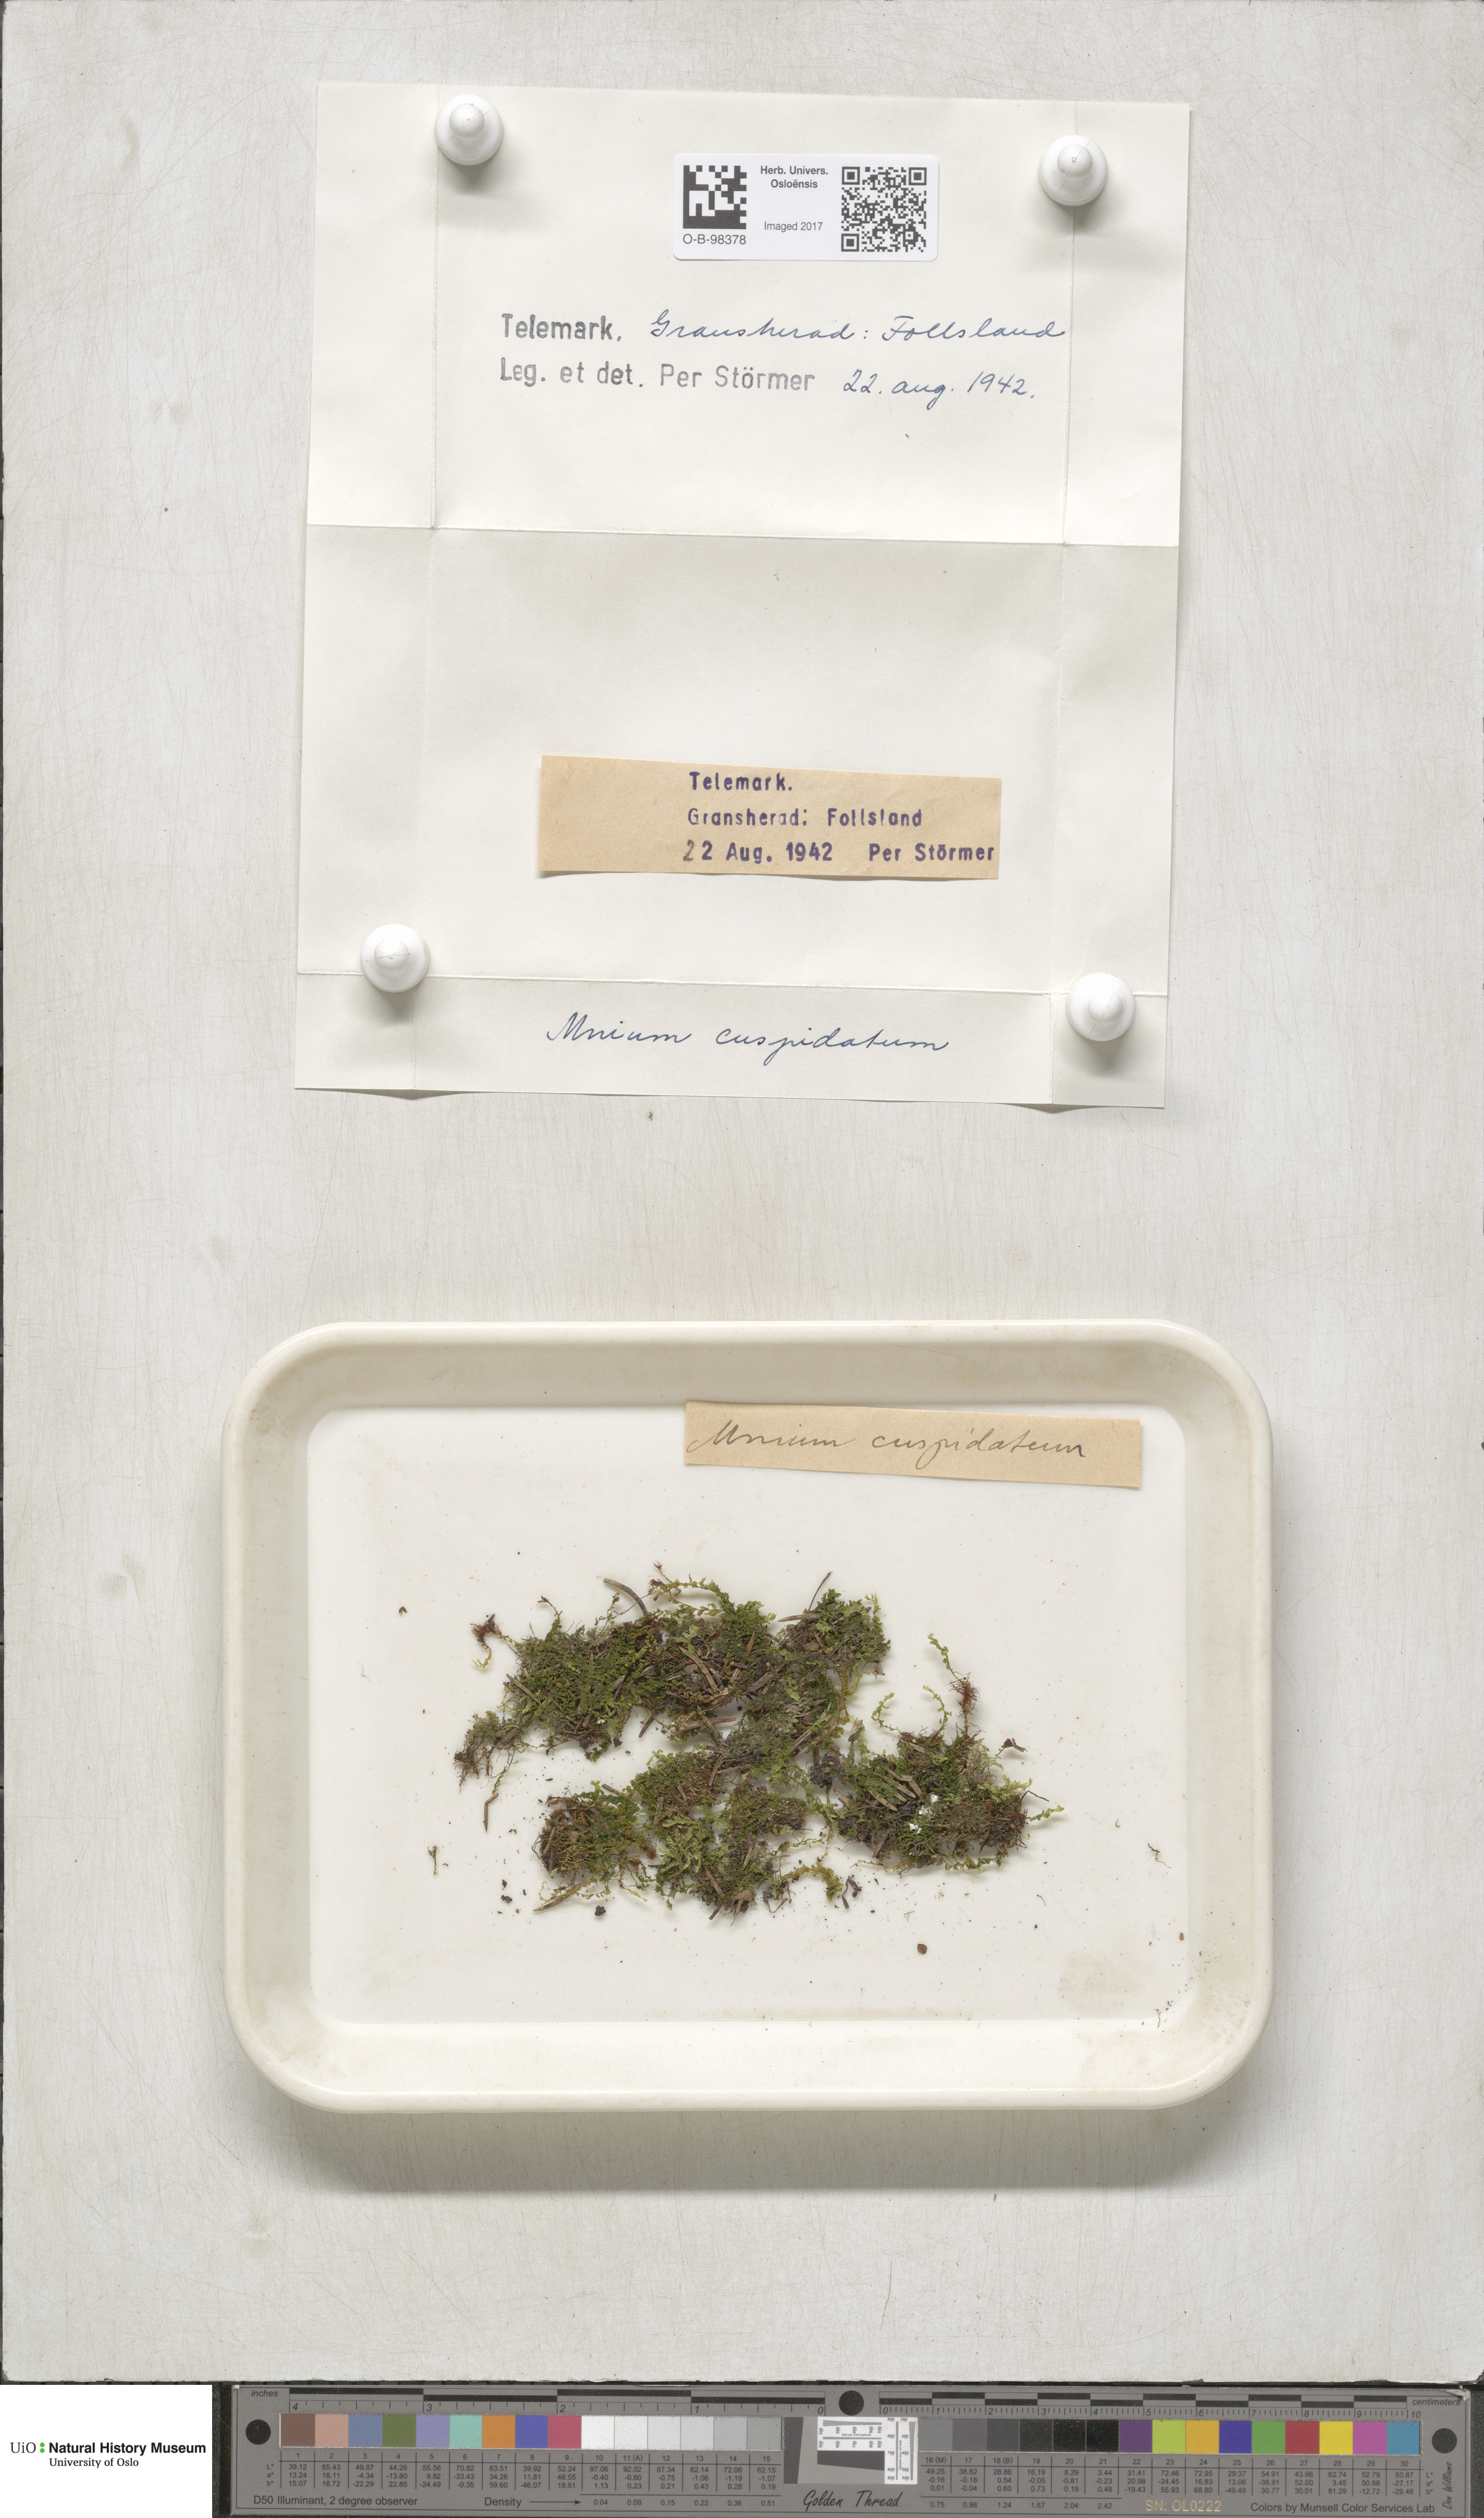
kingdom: Plantae
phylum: Bryophyta
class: Bryopsida
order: Bryales
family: Mniaceae
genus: Plagiomnium
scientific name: Plagiomnium affine
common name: Many-fruited thyme-moss
